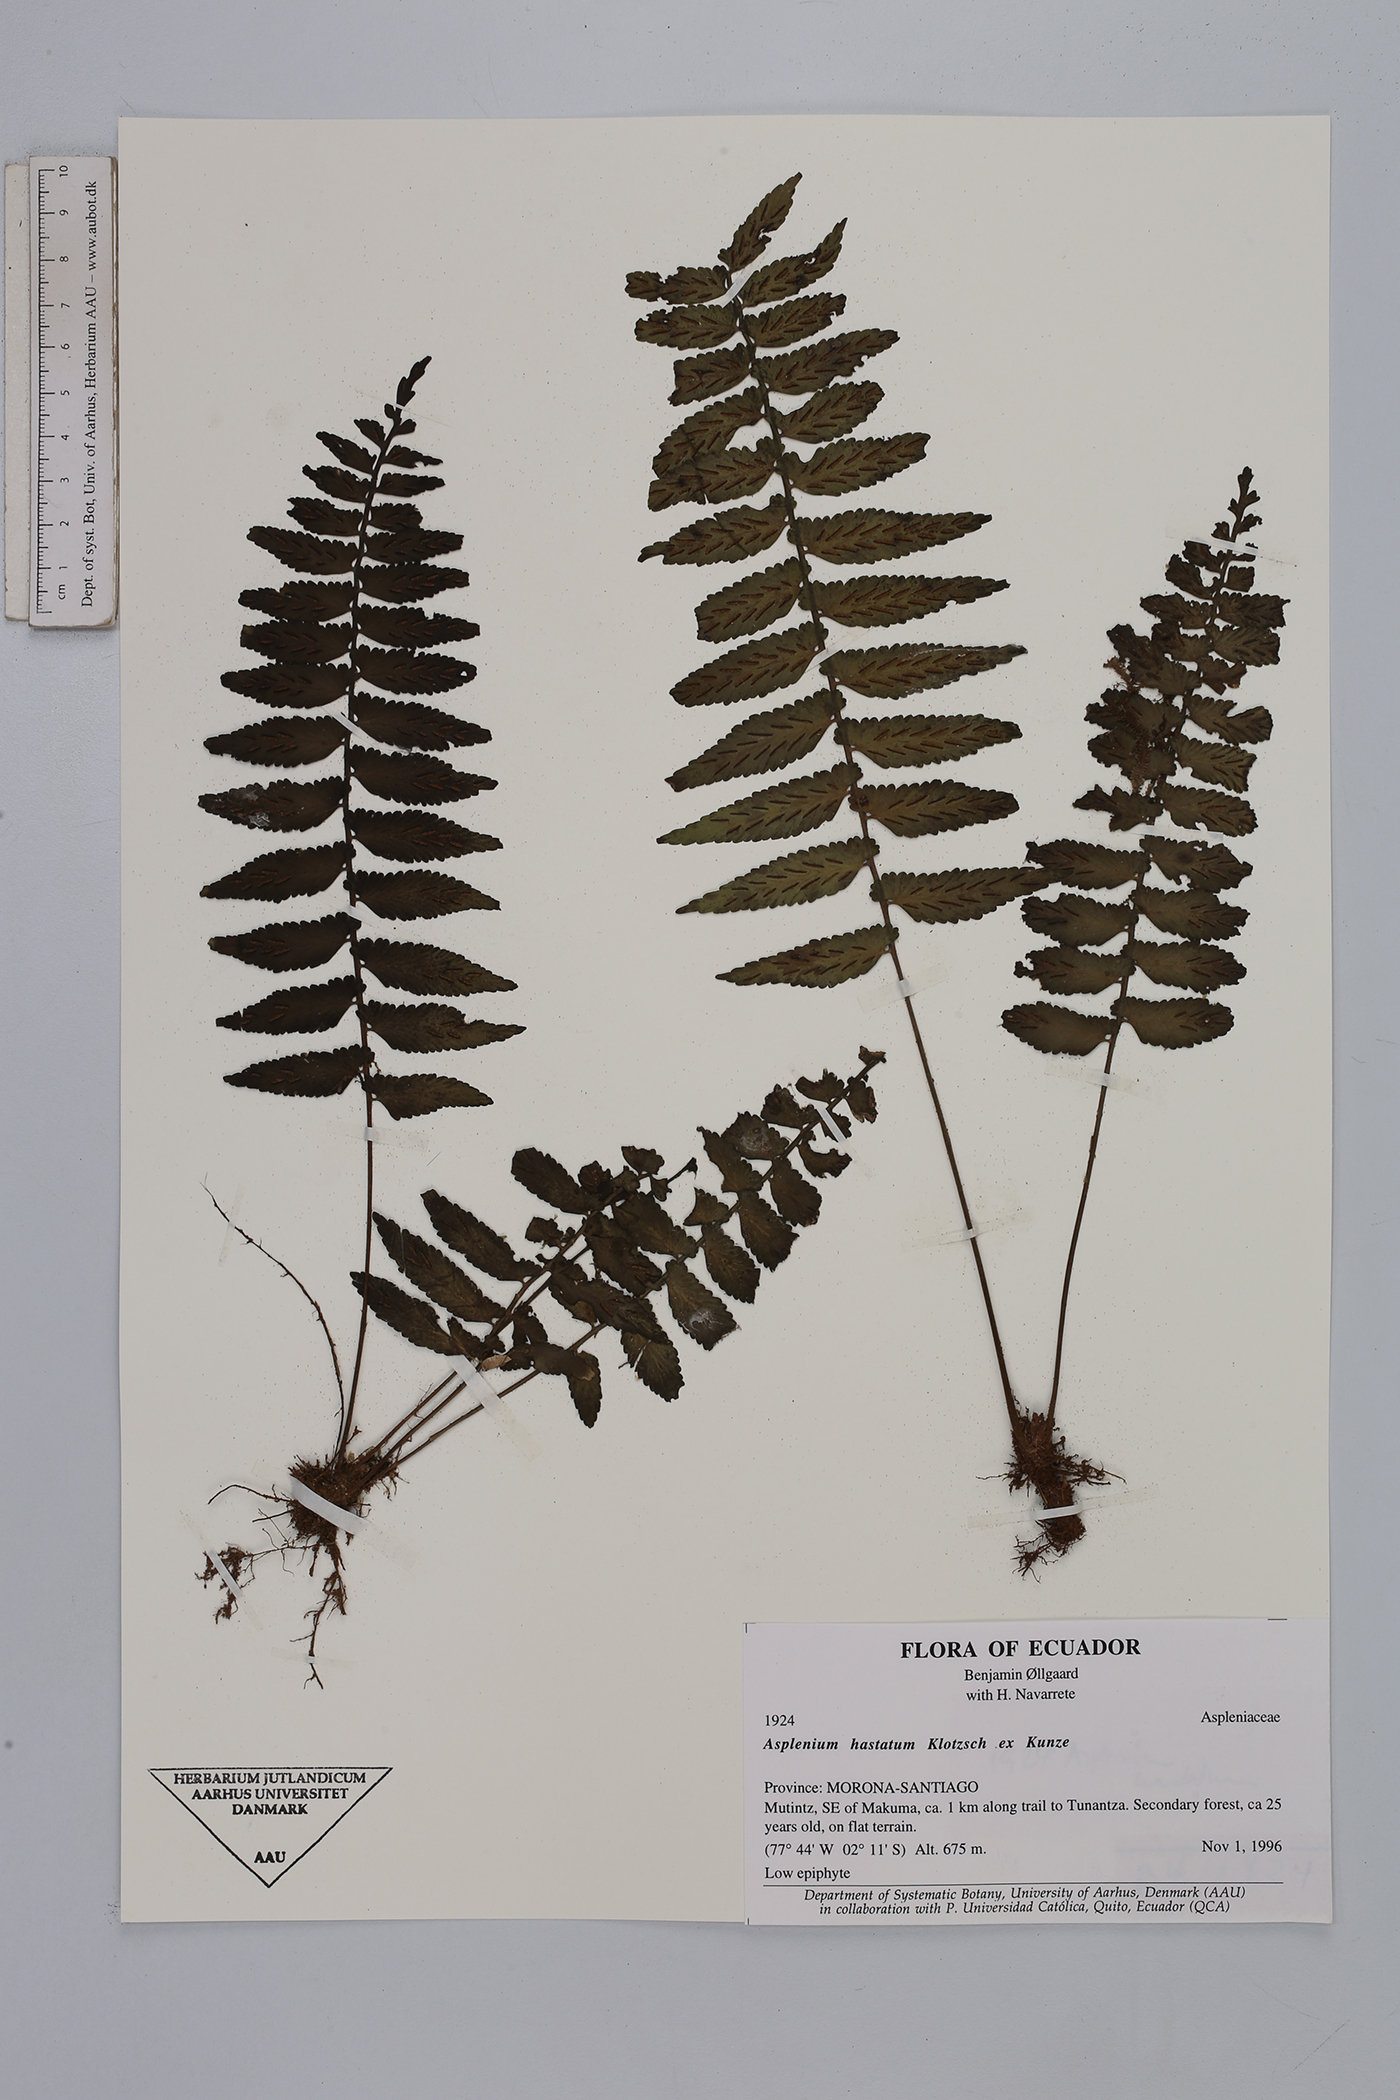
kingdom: Plantae
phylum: Tracheophyta
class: Polypodiopsida
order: Polypodiales
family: Aspleniaceae
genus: Asplenium
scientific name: Asplenium hastatum
